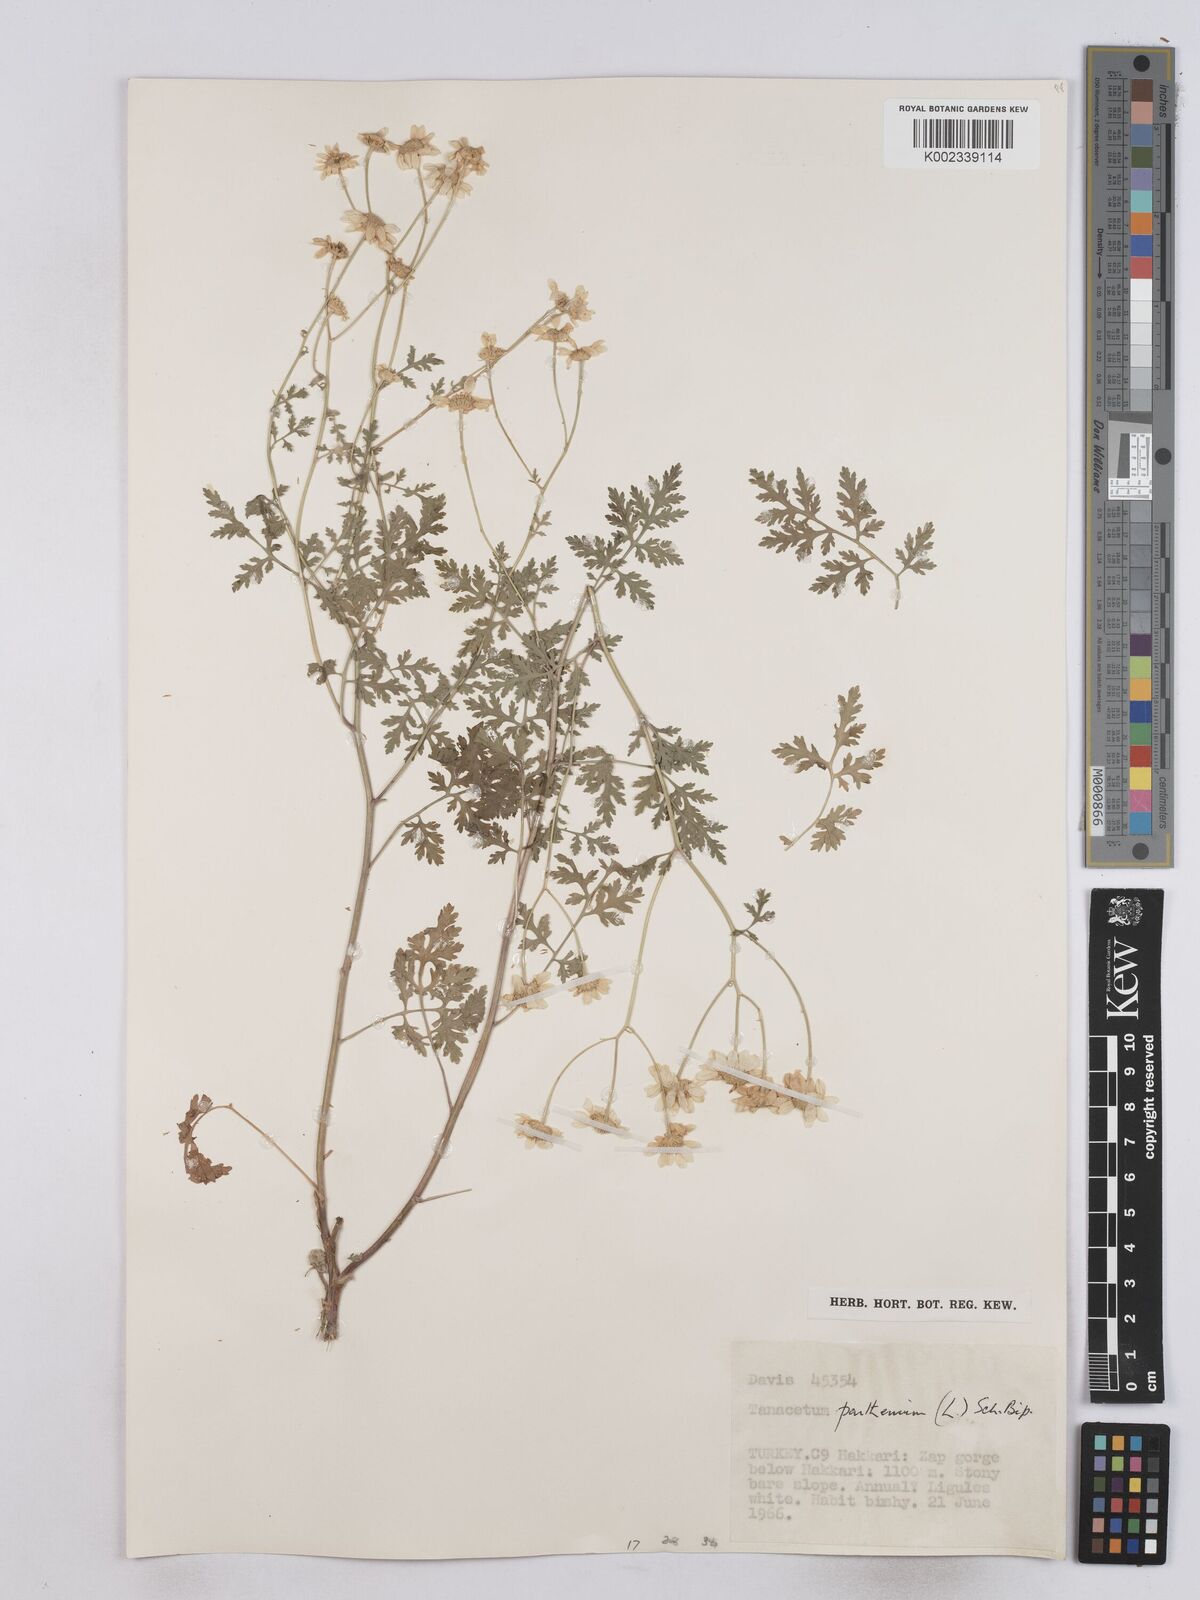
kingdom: Plantae
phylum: Tracheophyta
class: Magnoliopsida
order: Asterales
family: Asteraceae
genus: Tanacetum
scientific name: Tanacetum parthenium
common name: Feverfew
